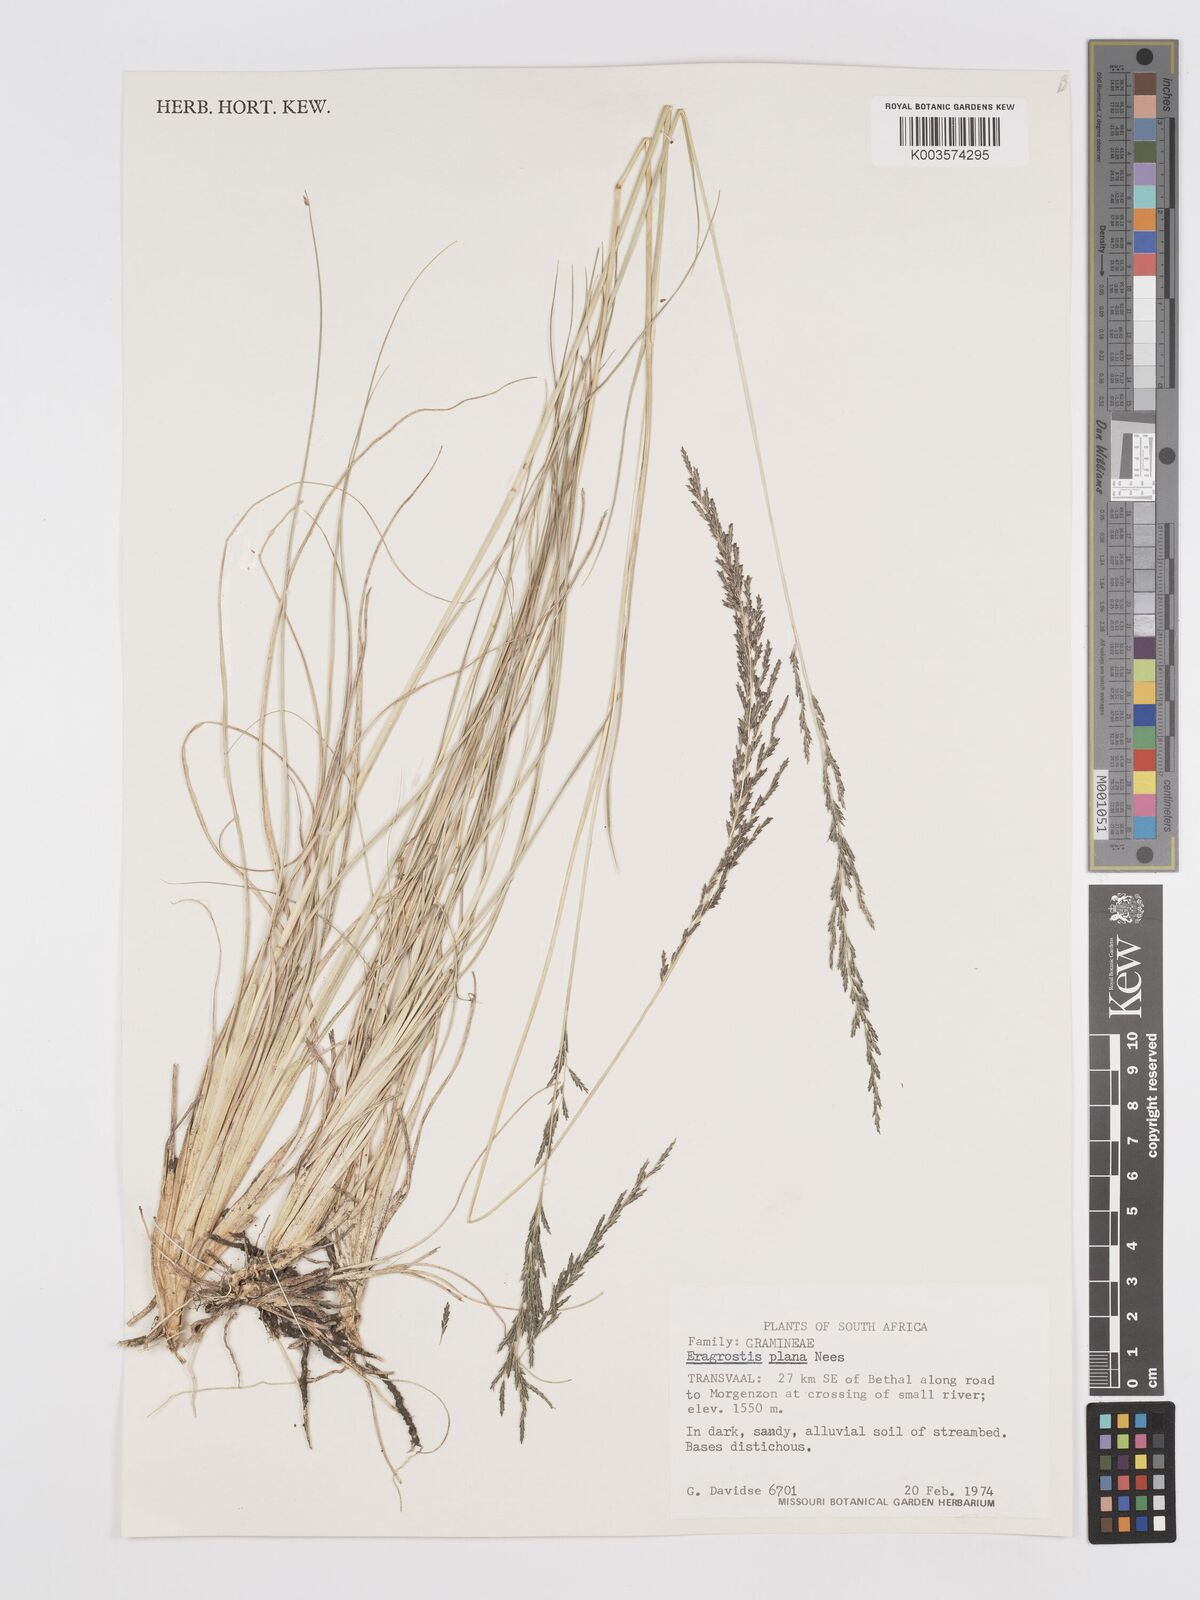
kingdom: Plantae
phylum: Tracheophyta
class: Liliopsida
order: Poales
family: Poaceae
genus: Eragrostis
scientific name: Eragrostis plana
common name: South african lovegrass
